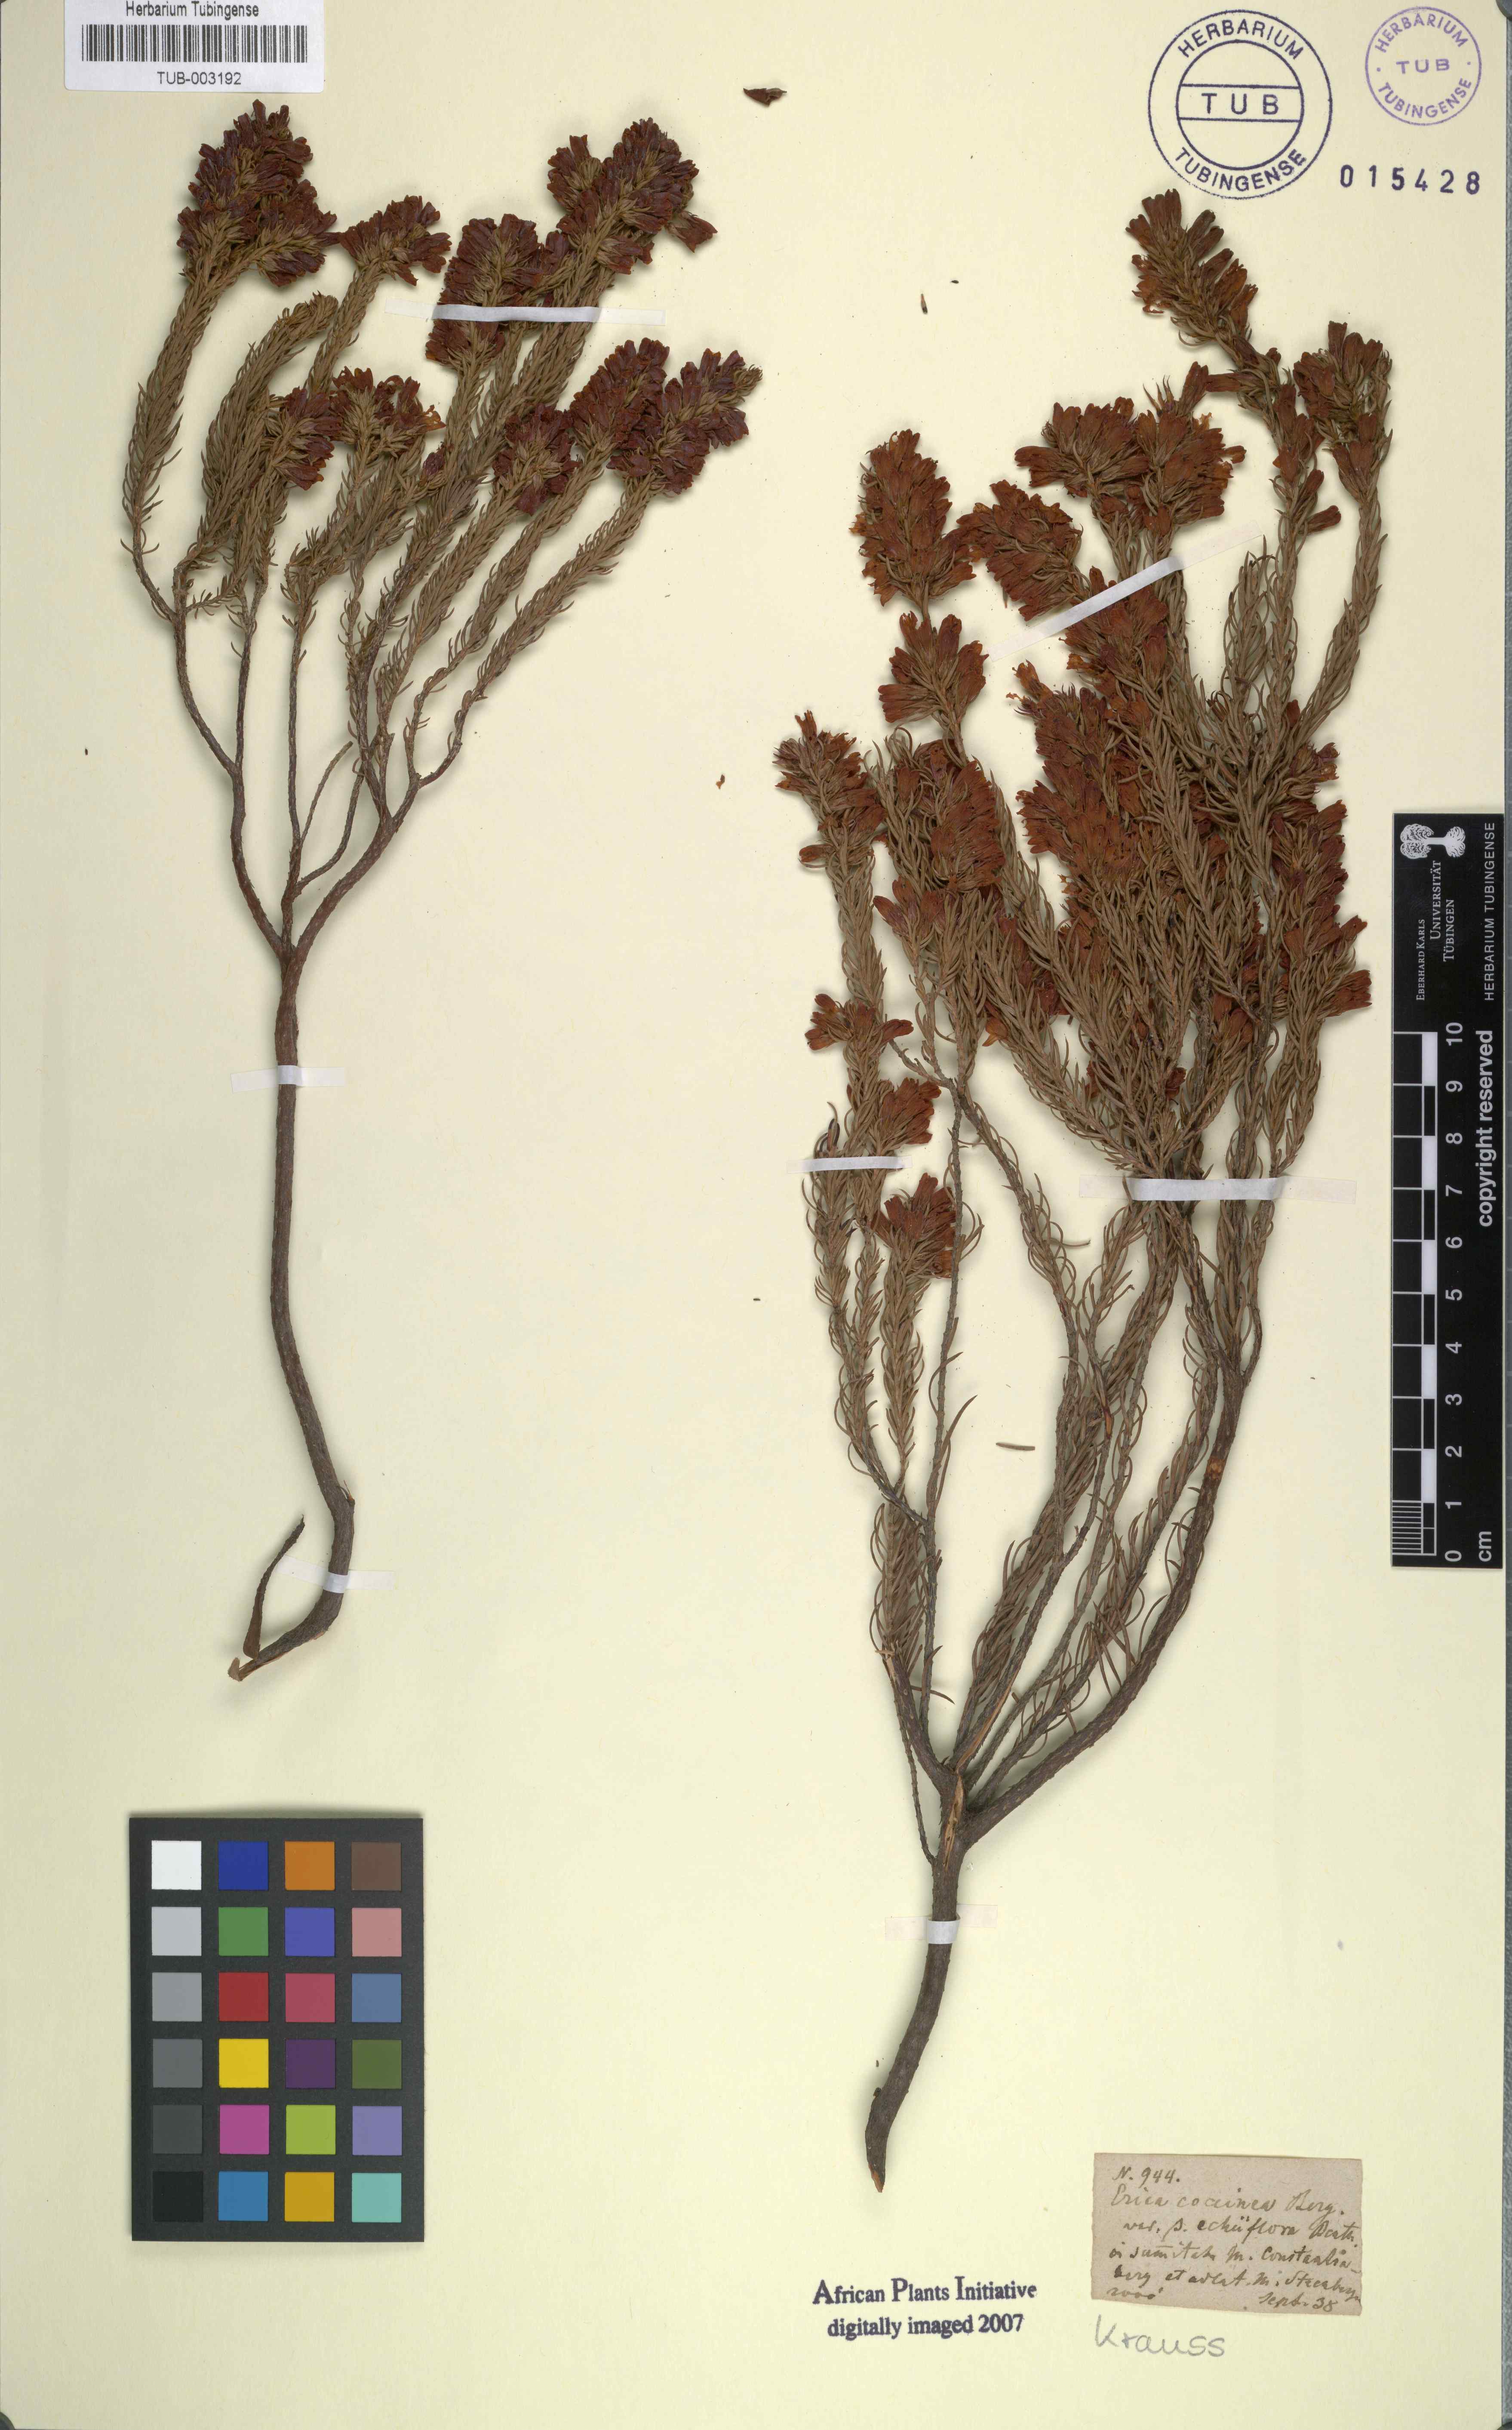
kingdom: Plantae
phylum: Tracheophyta
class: Magnoliopsida
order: Ericales
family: Ericaceae
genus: Erica
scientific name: Erica abietina
